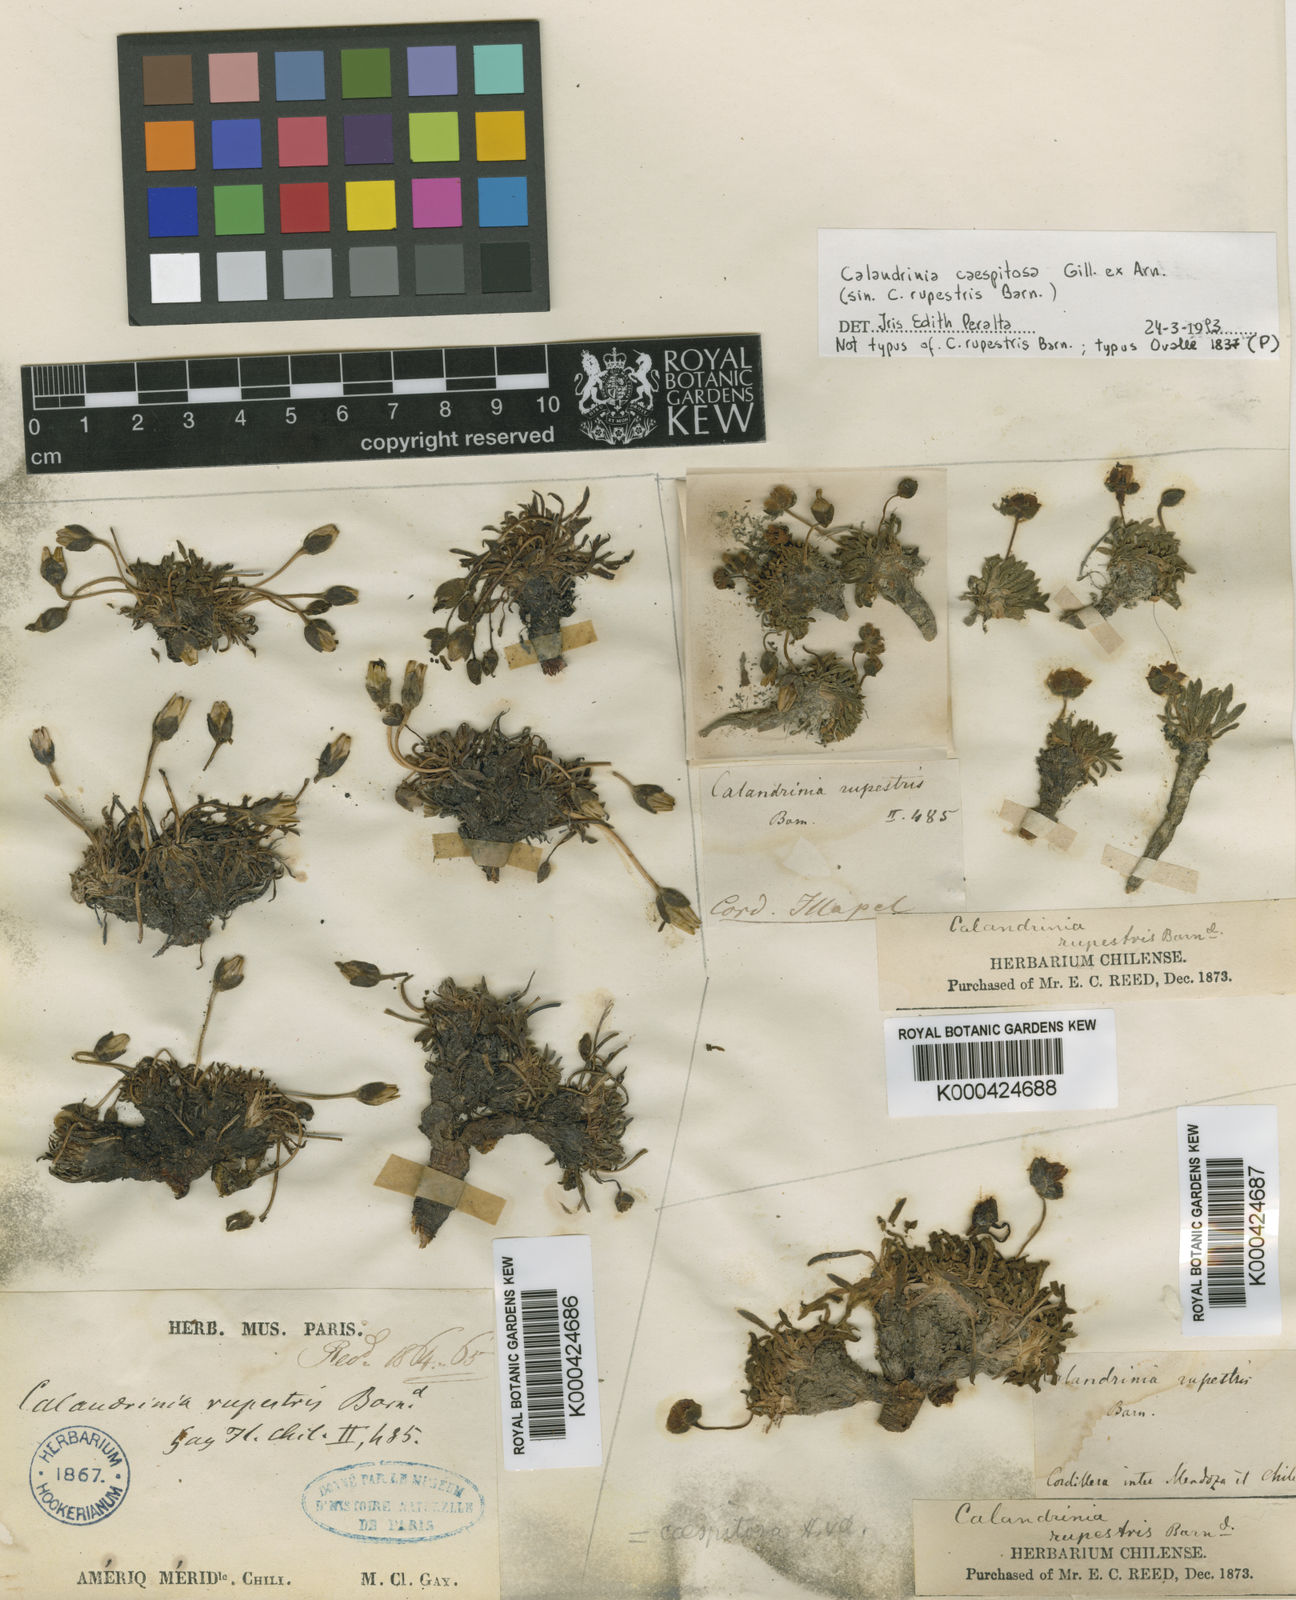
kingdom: Plantae
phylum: Tracheophyta
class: Magnoliopsida
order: Caryophyllales
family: Montiaceae
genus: Calandrinia
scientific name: Calandrinia caespitosa
